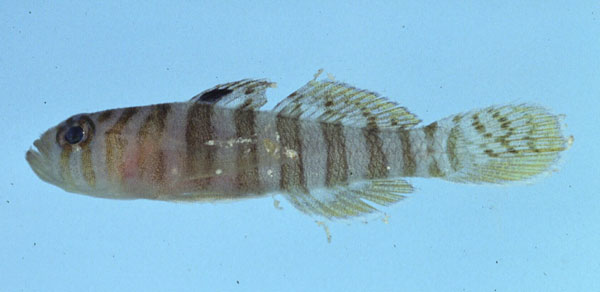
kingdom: Animalia
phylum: Chordata
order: Perciformes
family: Gobiidae
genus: Priolepis
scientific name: Priolepis cincta
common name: Banded reef-goby
